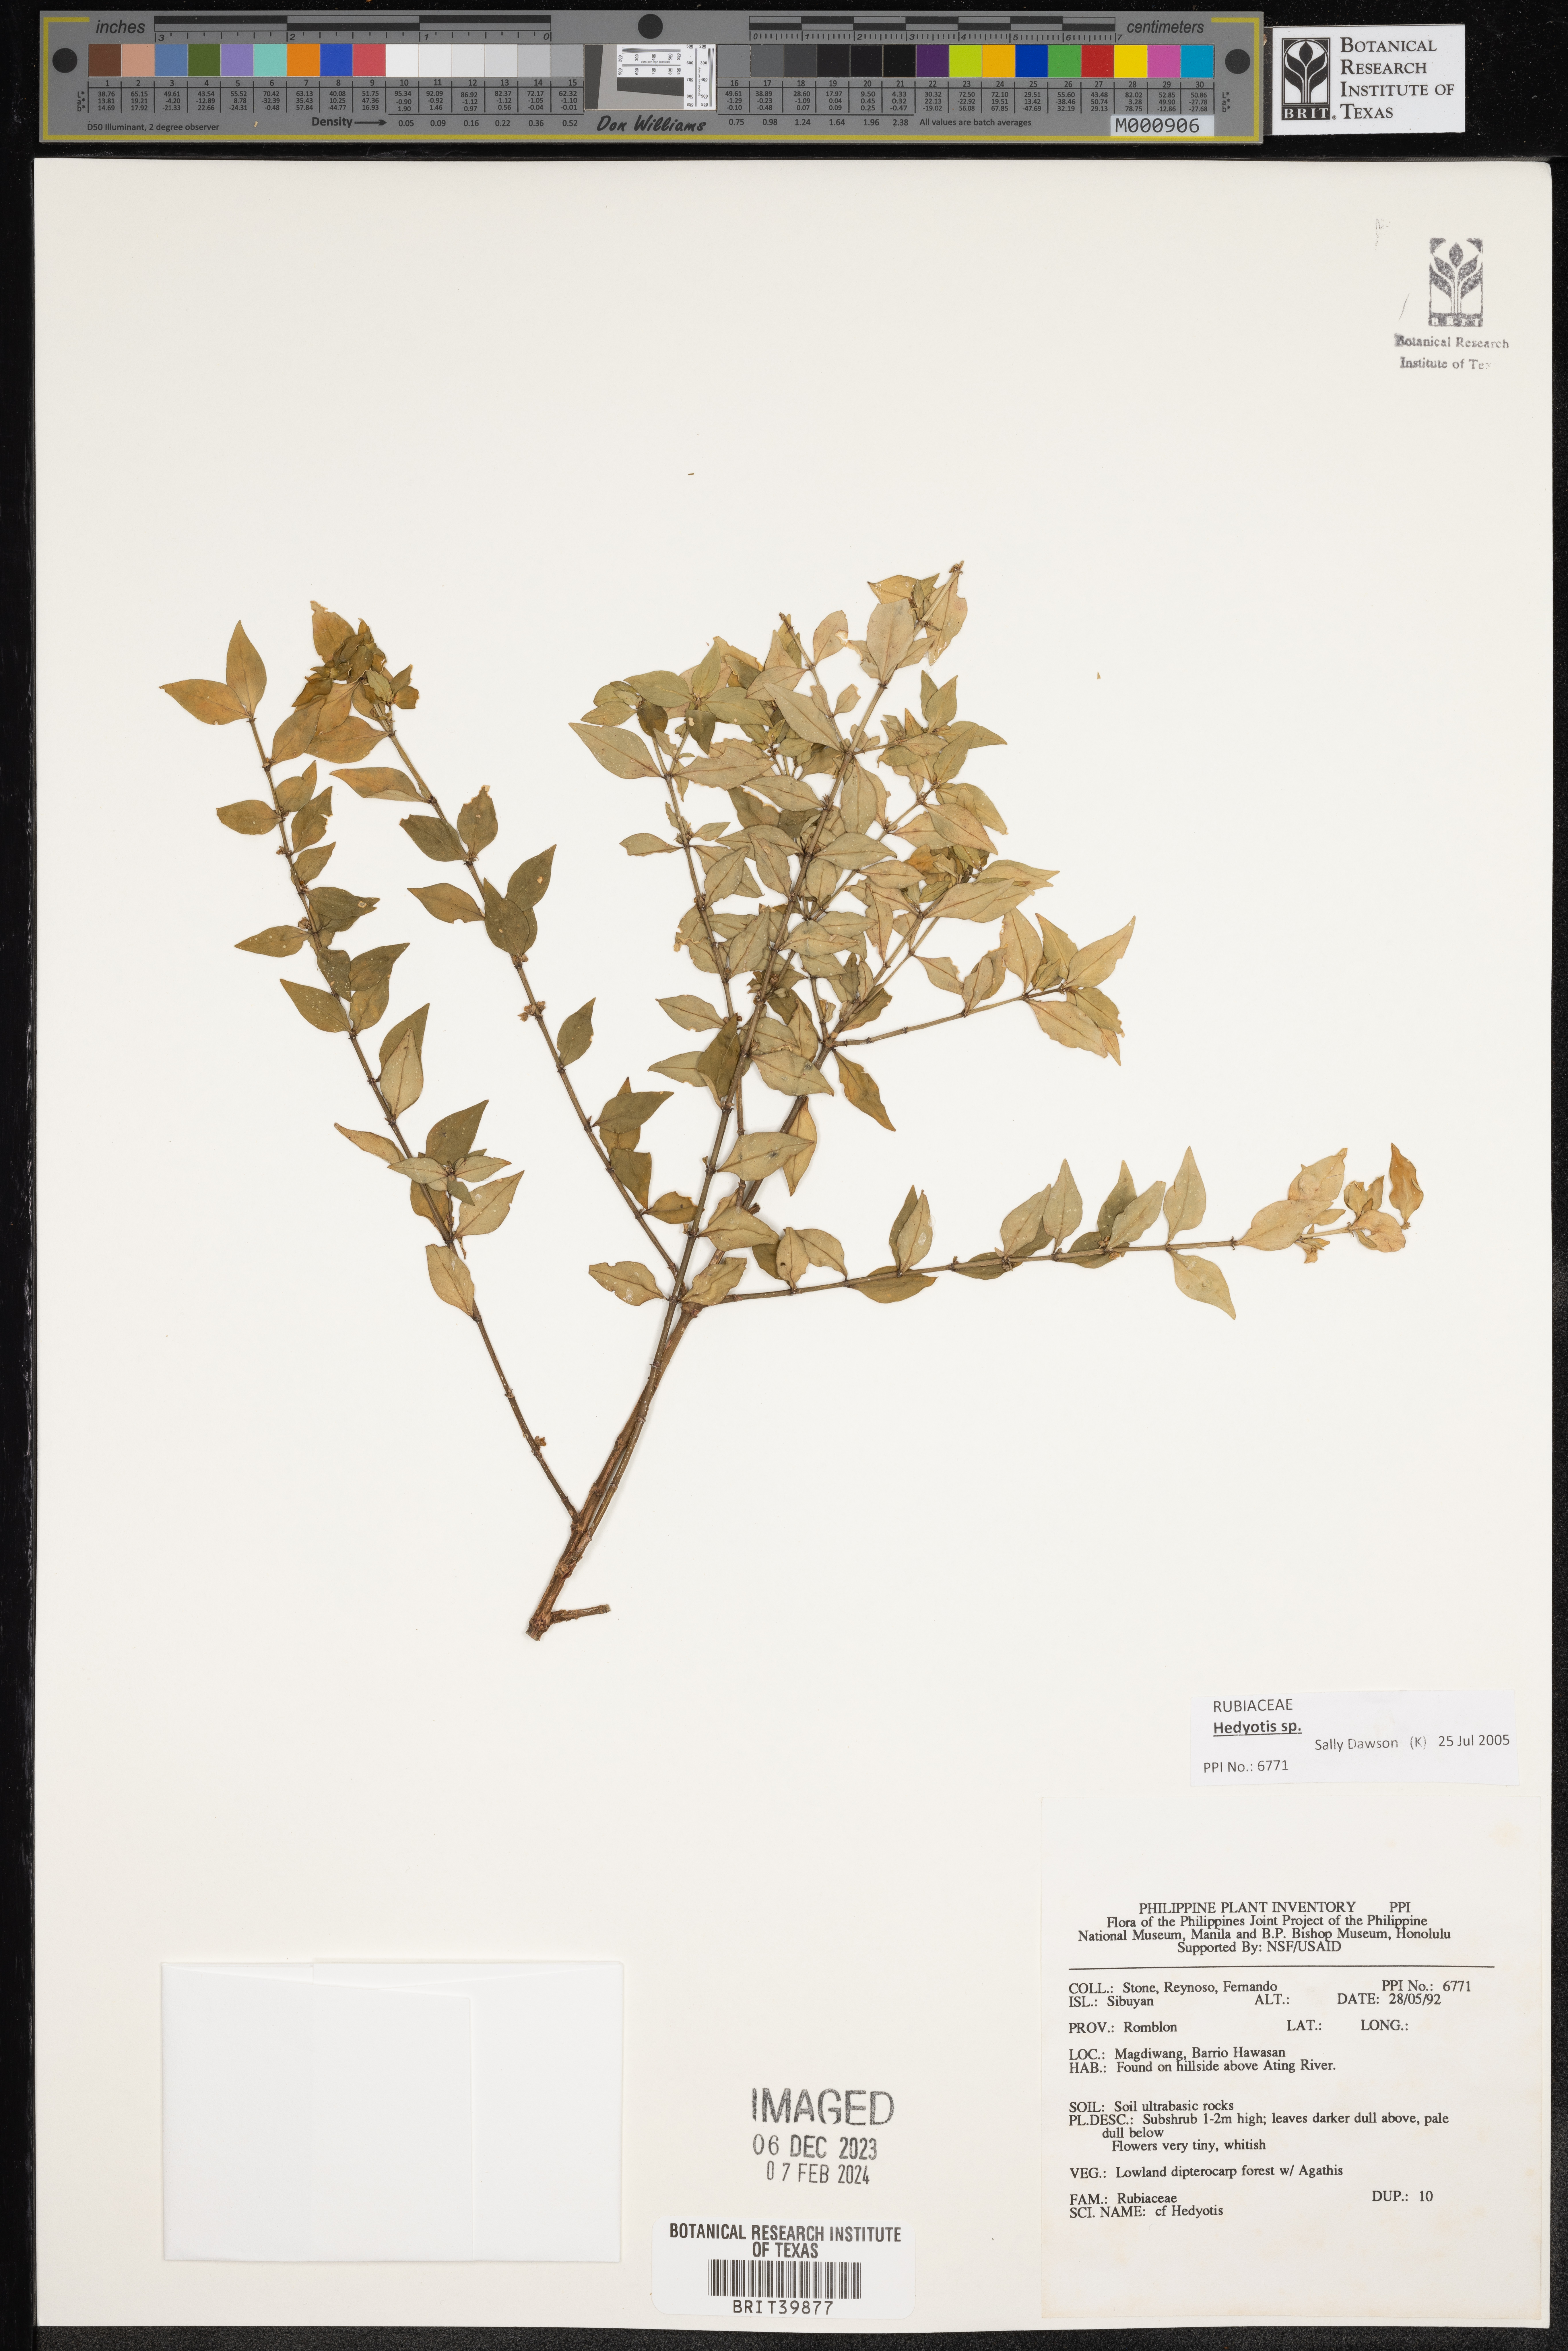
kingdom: Plantae
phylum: Tracheophyta
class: Magnoliopsida
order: Gentianales
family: Rubiaceae
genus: Hedyotis
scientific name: Hedyotis
